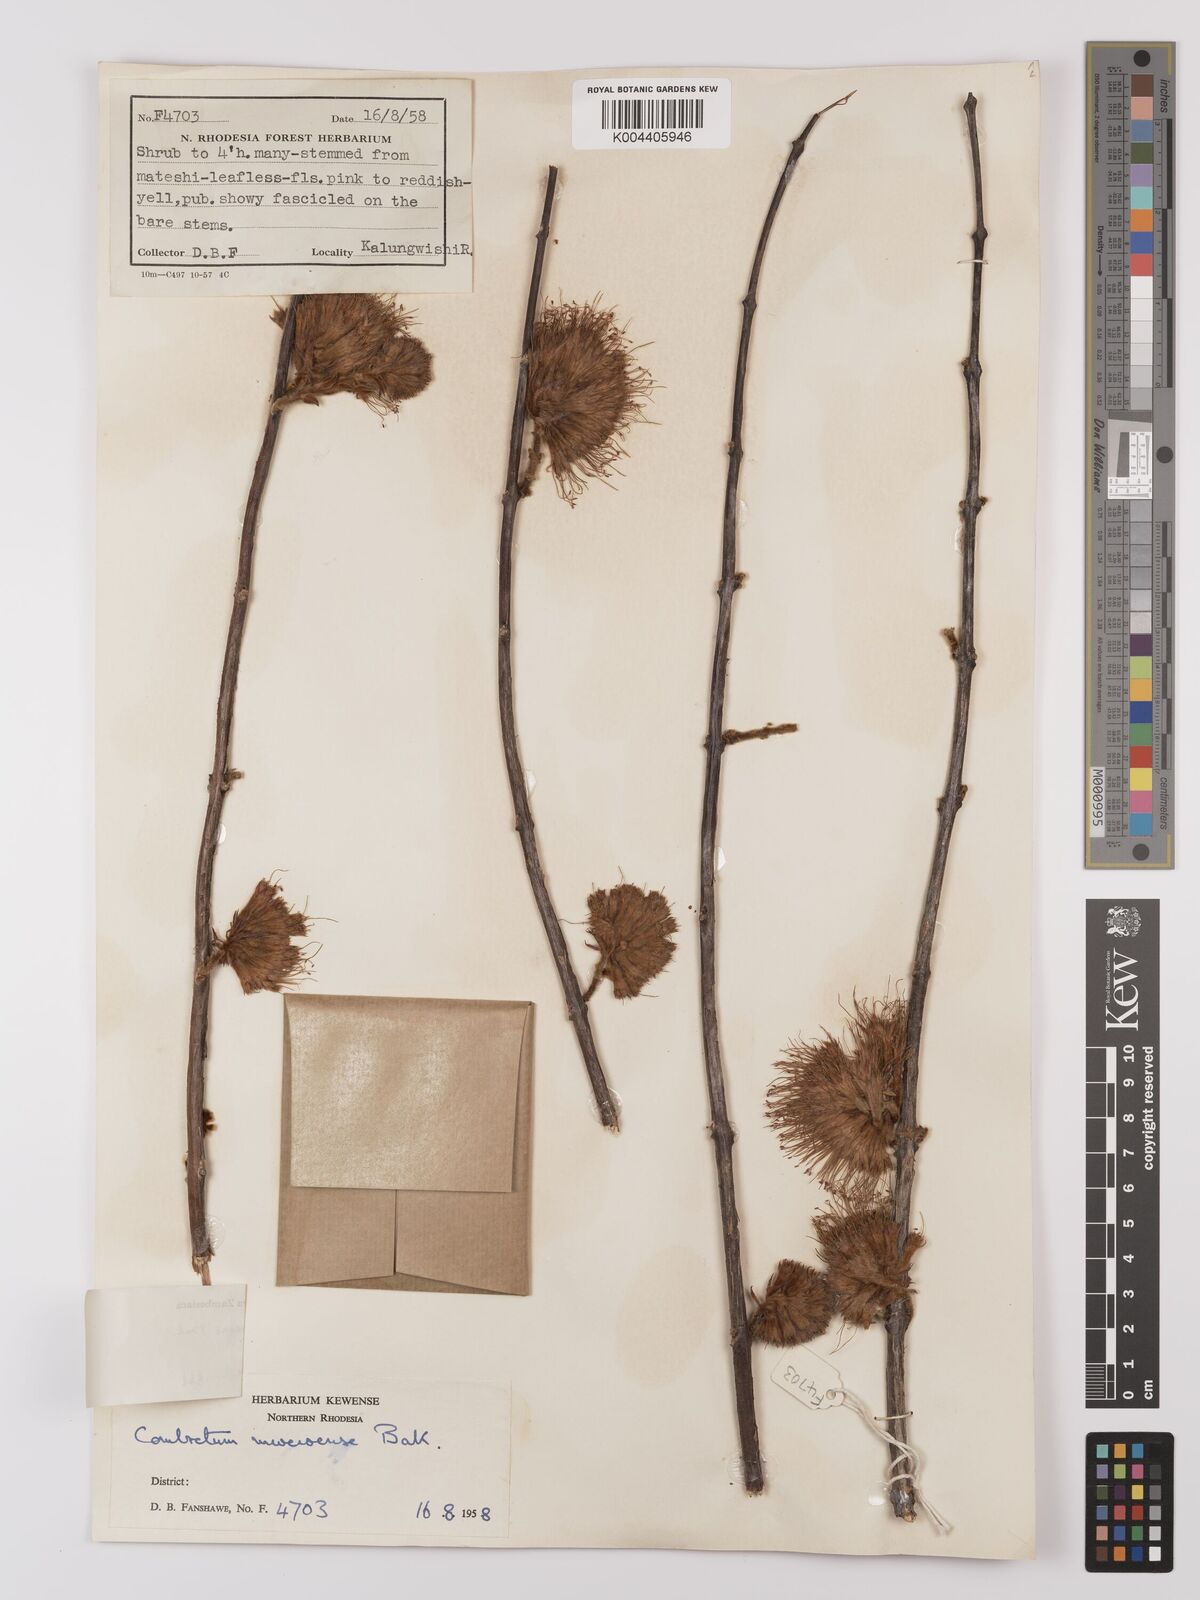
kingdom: Plantae
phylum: Tracheophyta
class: Magnoliopsida
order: Myrtales
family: Combretaceae
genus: Combretum
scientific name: Combretum mweroense
